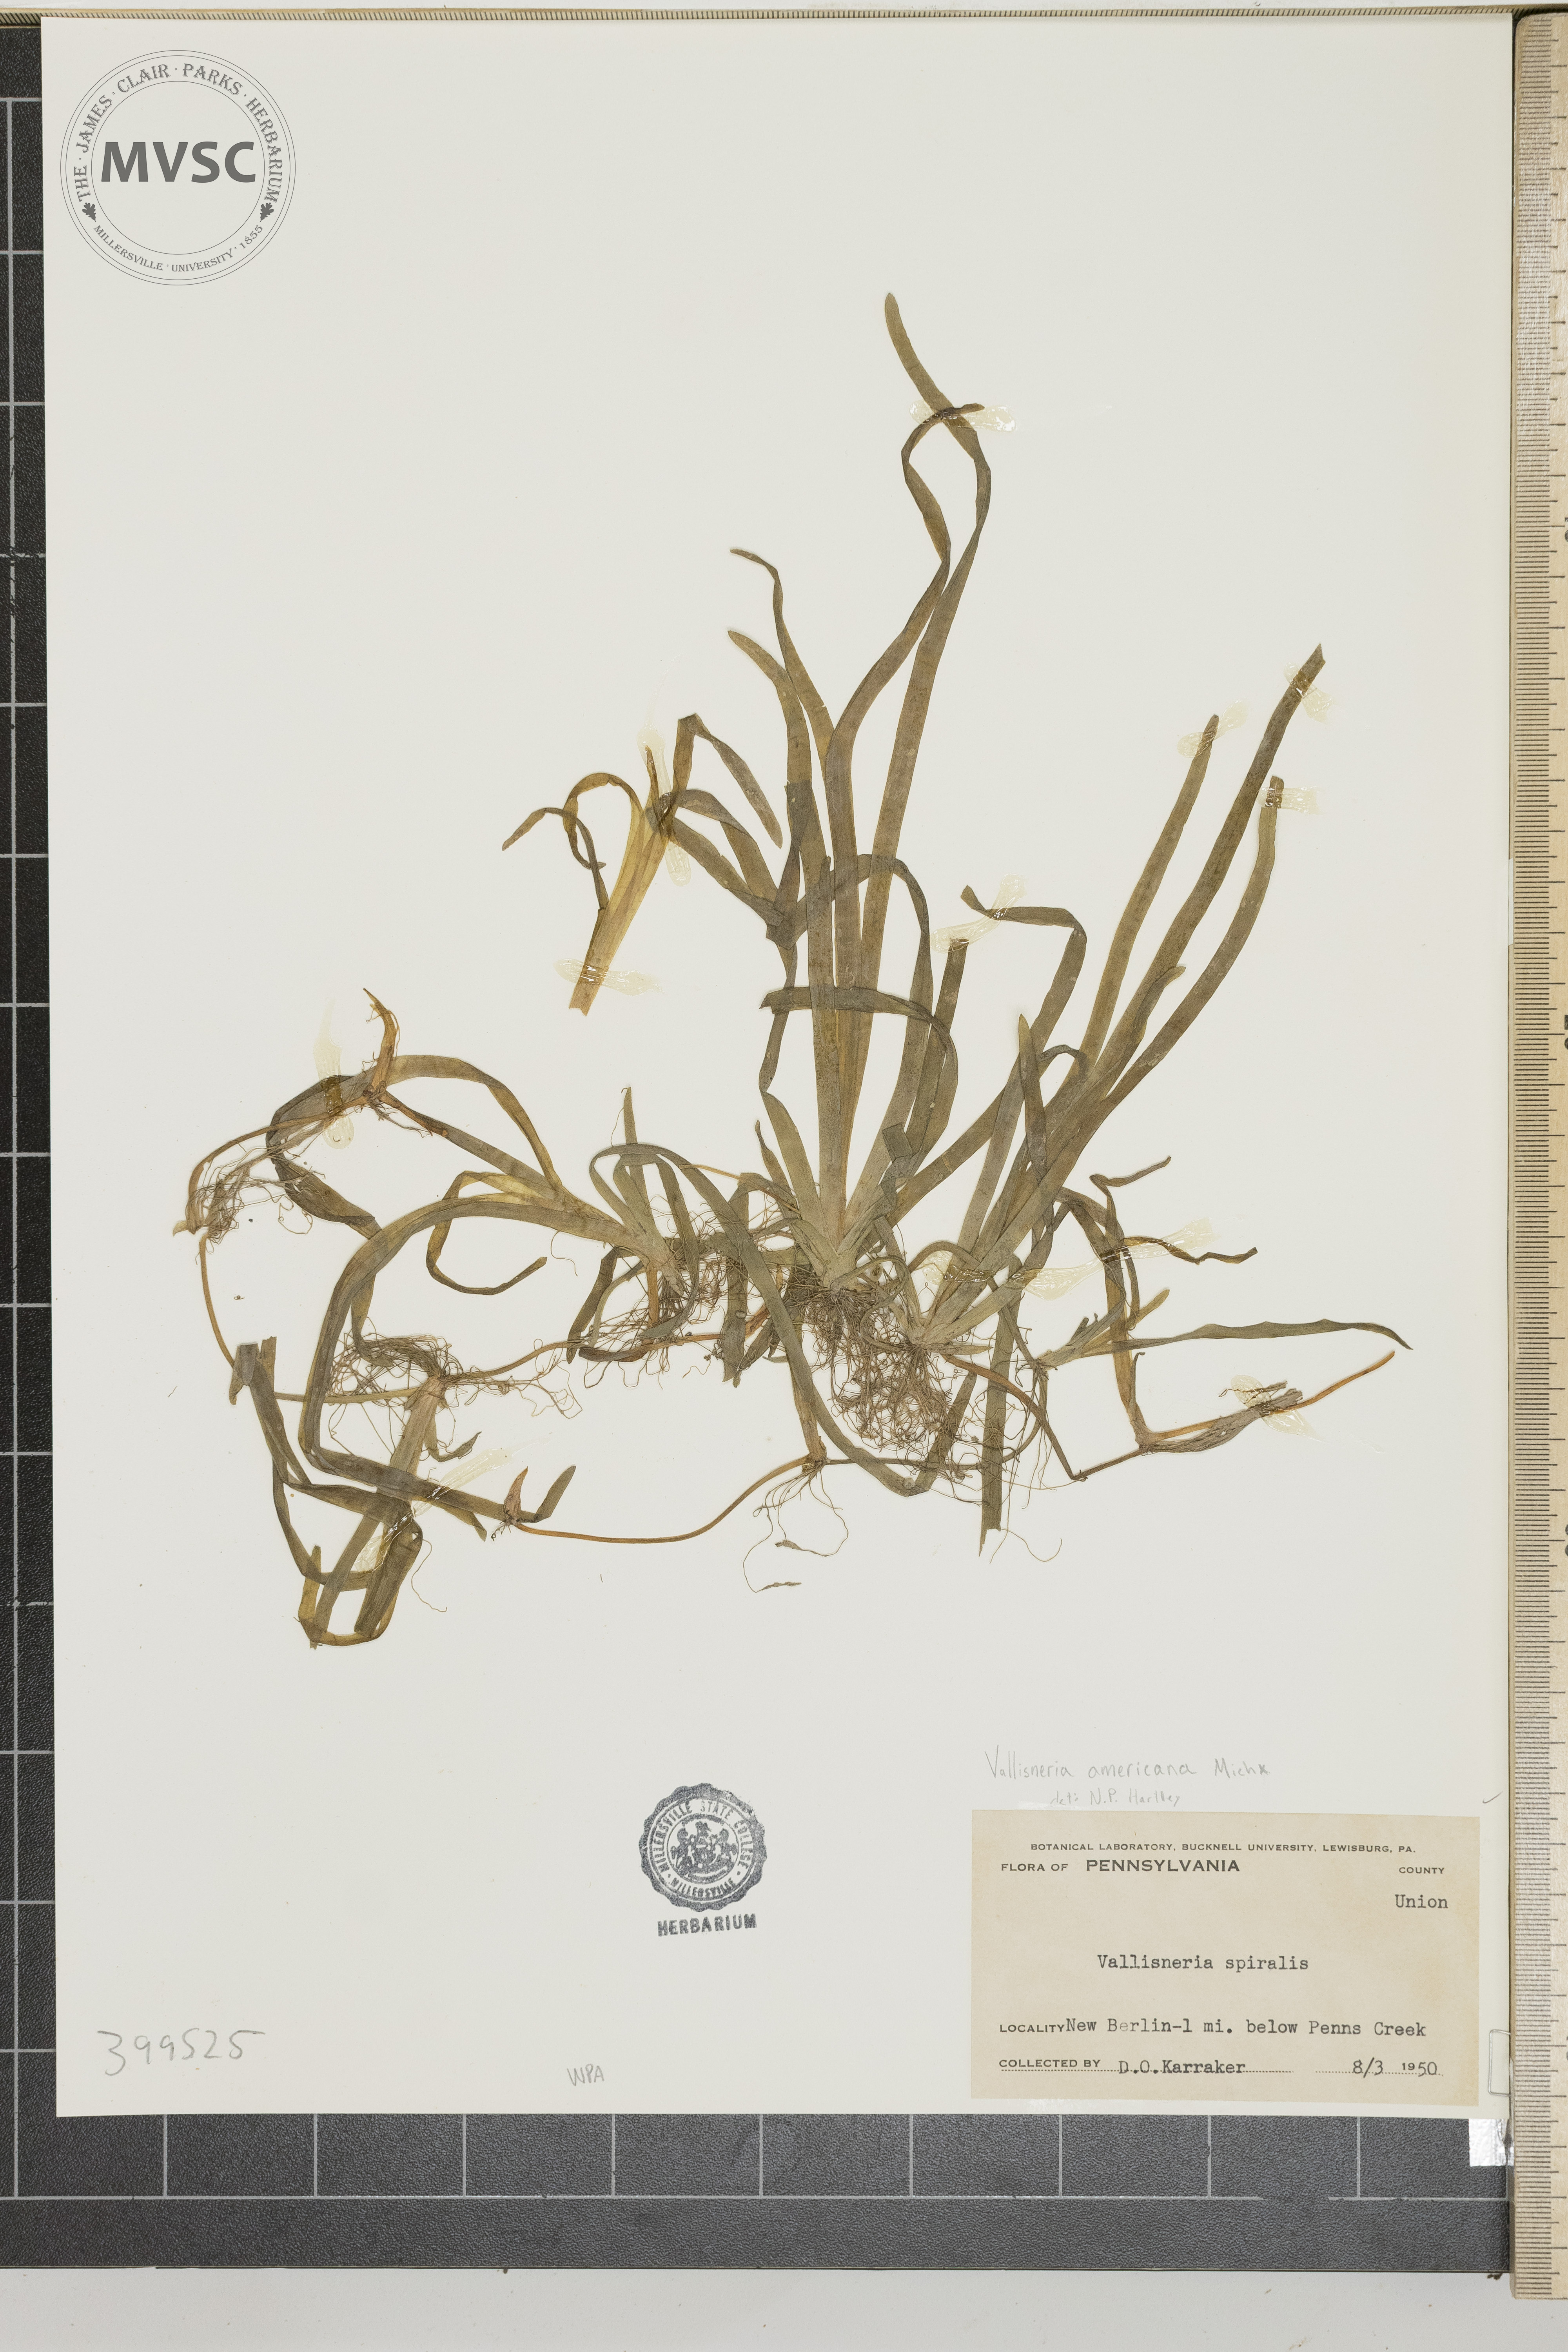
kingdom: Plantae
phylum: Tracheophyta
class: Liliopsida
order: Alismatales
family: Hydrocharitaceae
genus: Vallisneria
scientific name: Vallisneria americana
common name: American eelgrass
